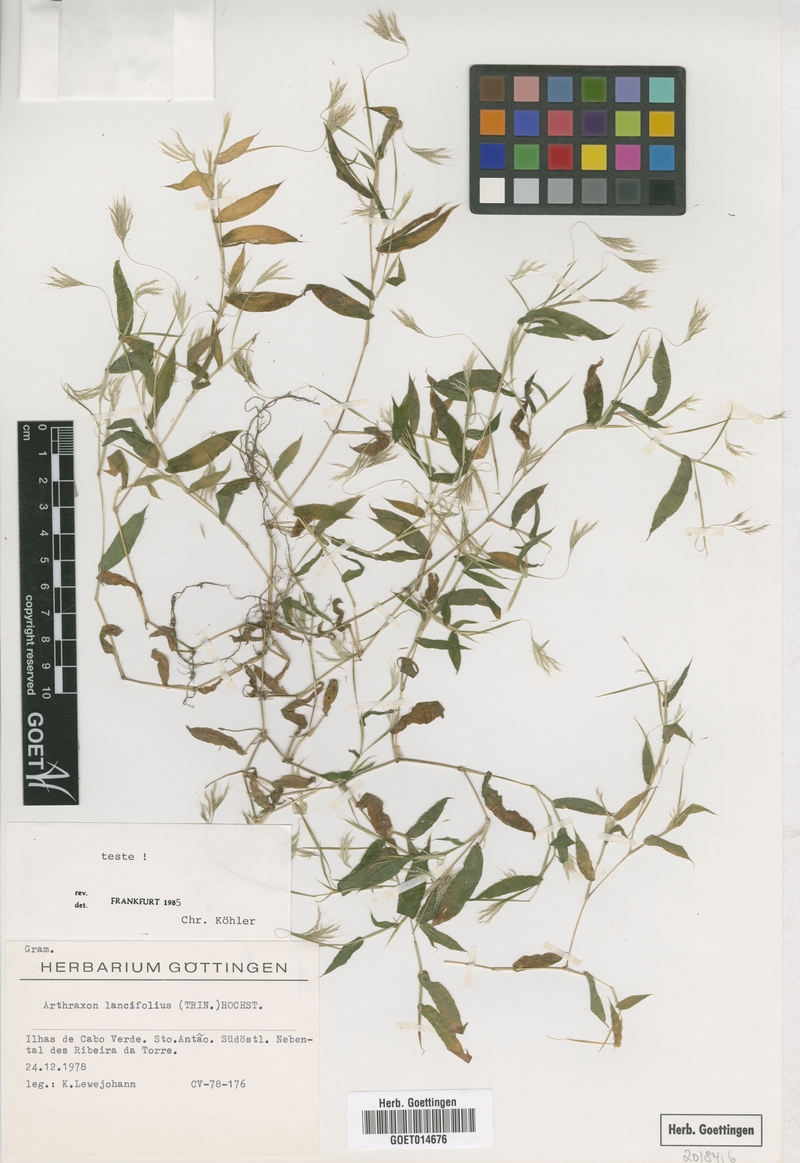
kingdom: Plantae
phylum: Tracheophyta
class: Liliopsida
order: Poales
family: Poaceae
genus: Arthraxon
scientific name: Arthraxon lancifolius
